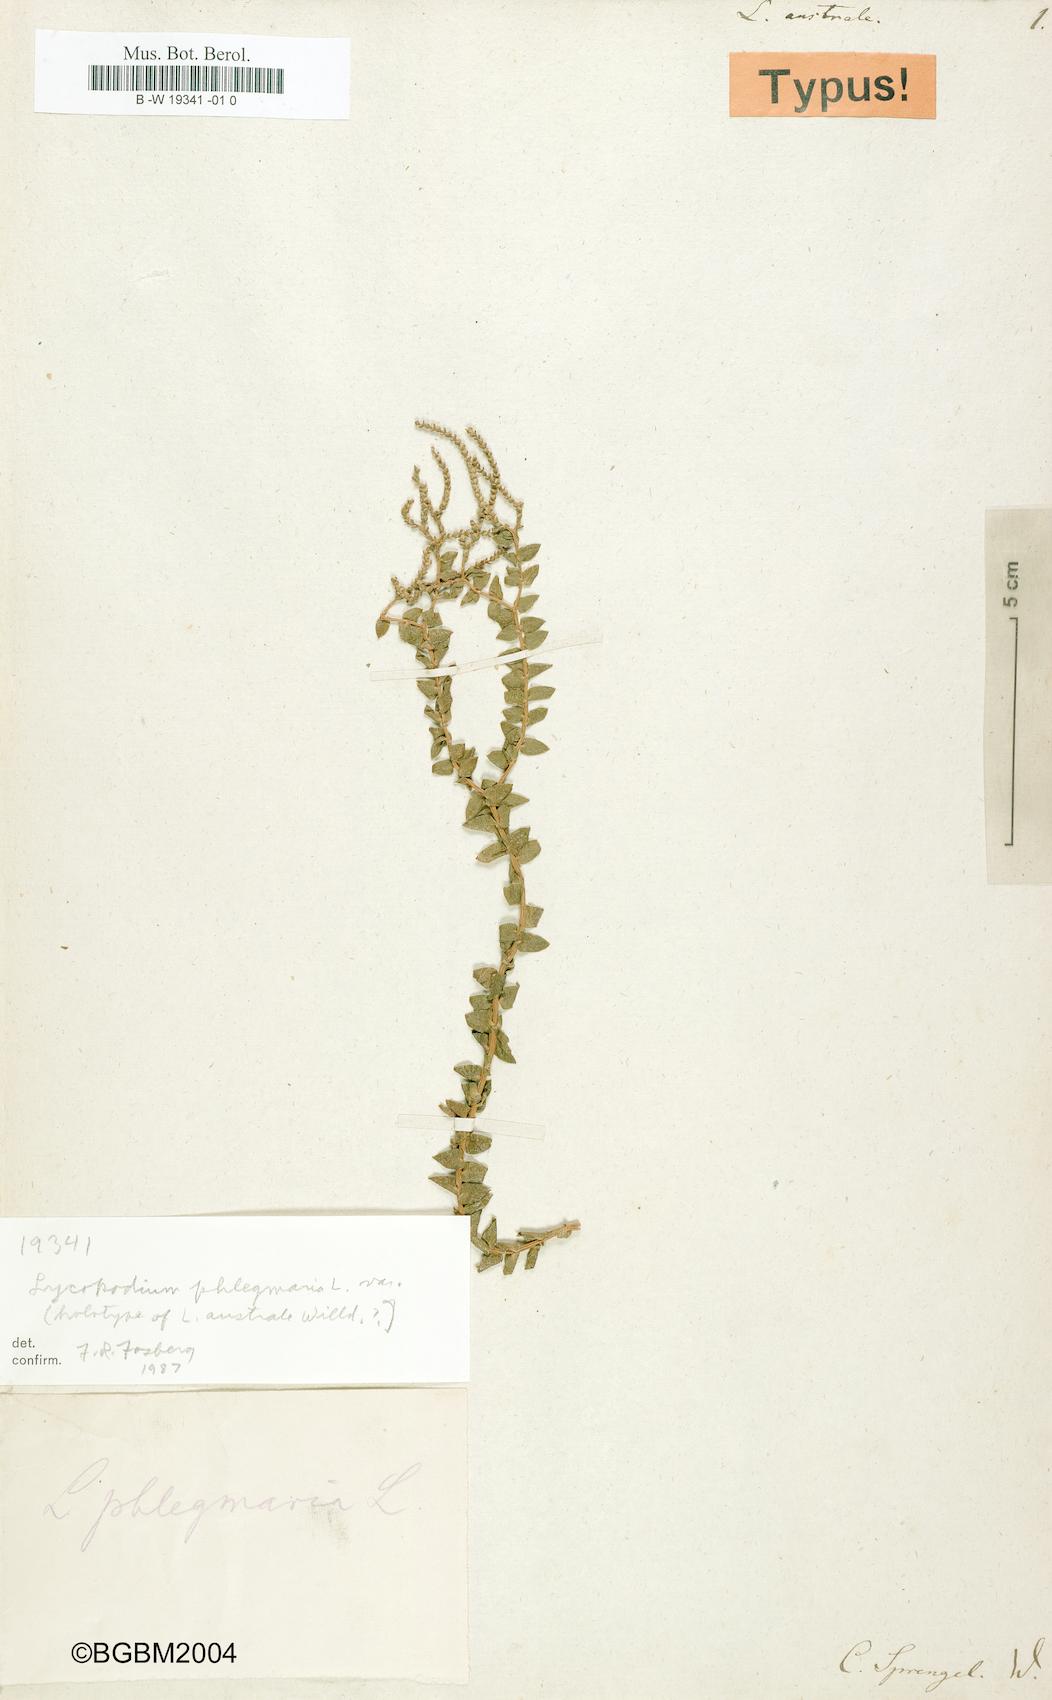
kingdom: Plantae
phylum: Tracheophyta
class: Lycopodiopsida
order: Lycopodiales
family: Lycopodiaceae
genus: Phlegmariurus
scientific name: Phlegmariurus australis
